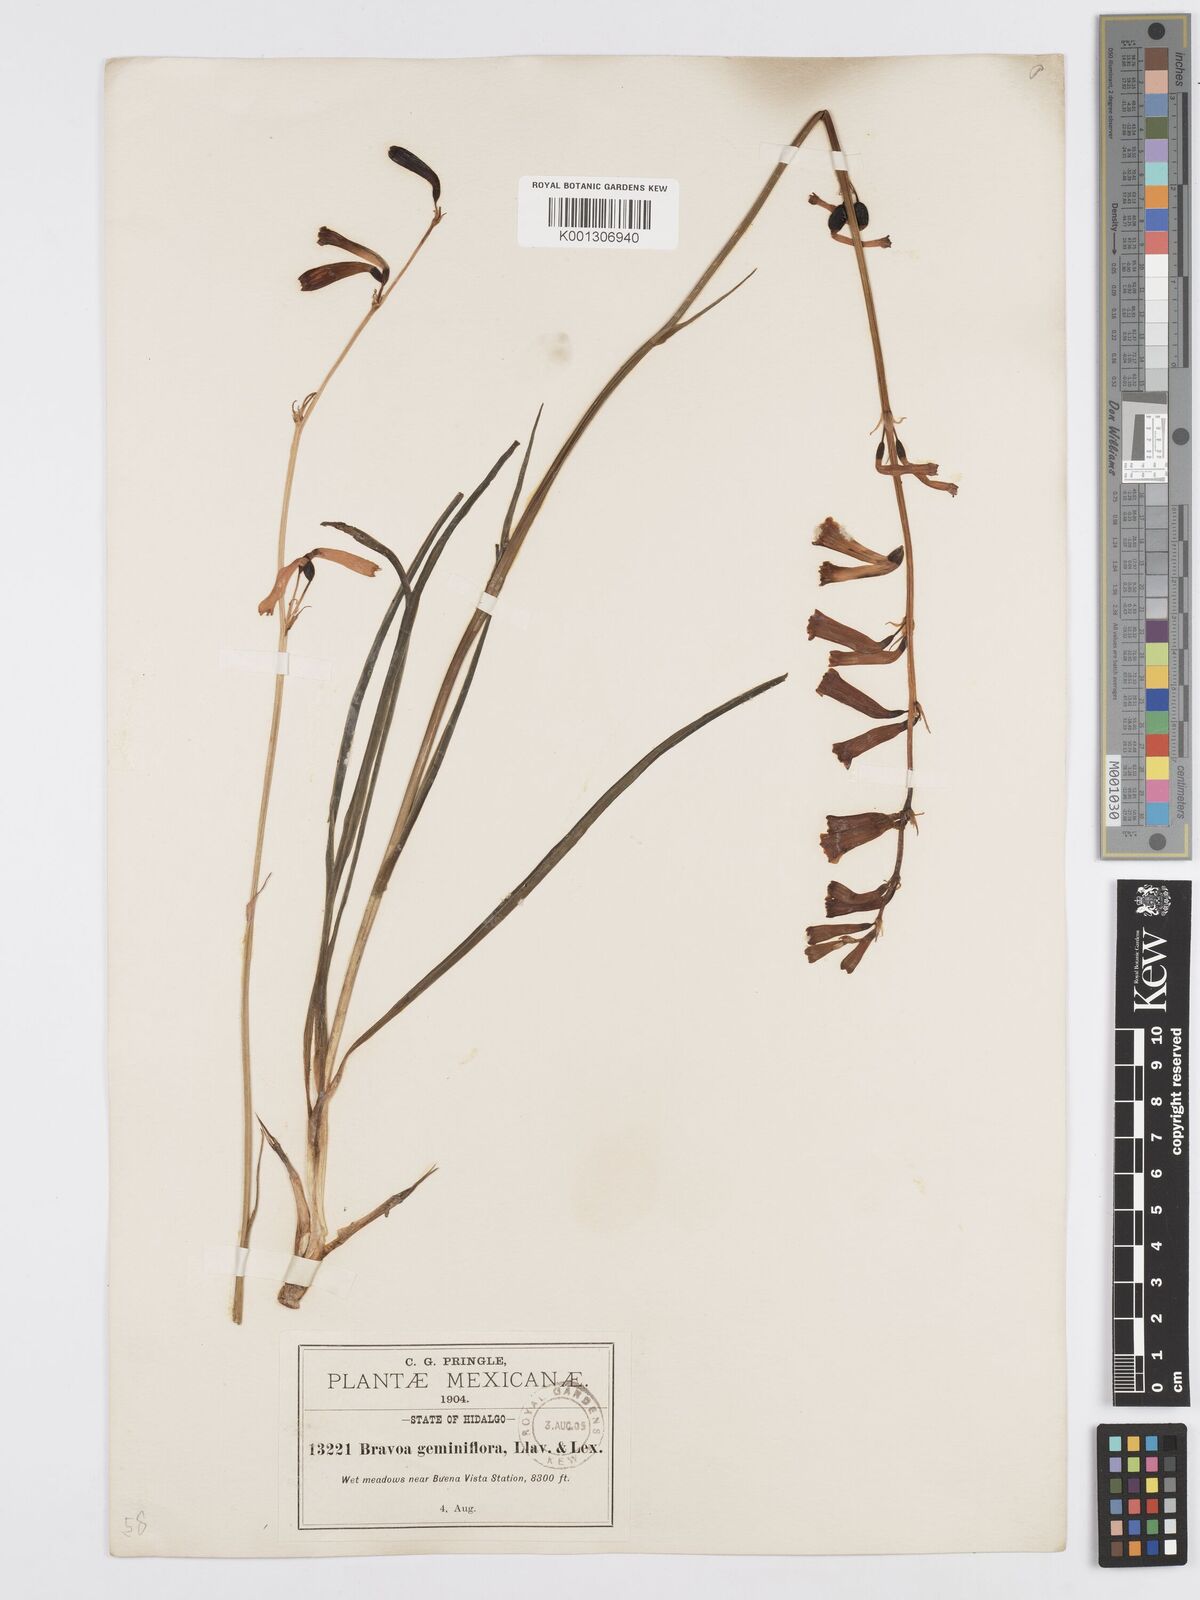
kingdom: Plantae
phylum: Tracheophyta
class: Liliopsida
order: Asparagales
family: Asparagaceae
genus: Agave
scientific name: Agave coetocapnia
